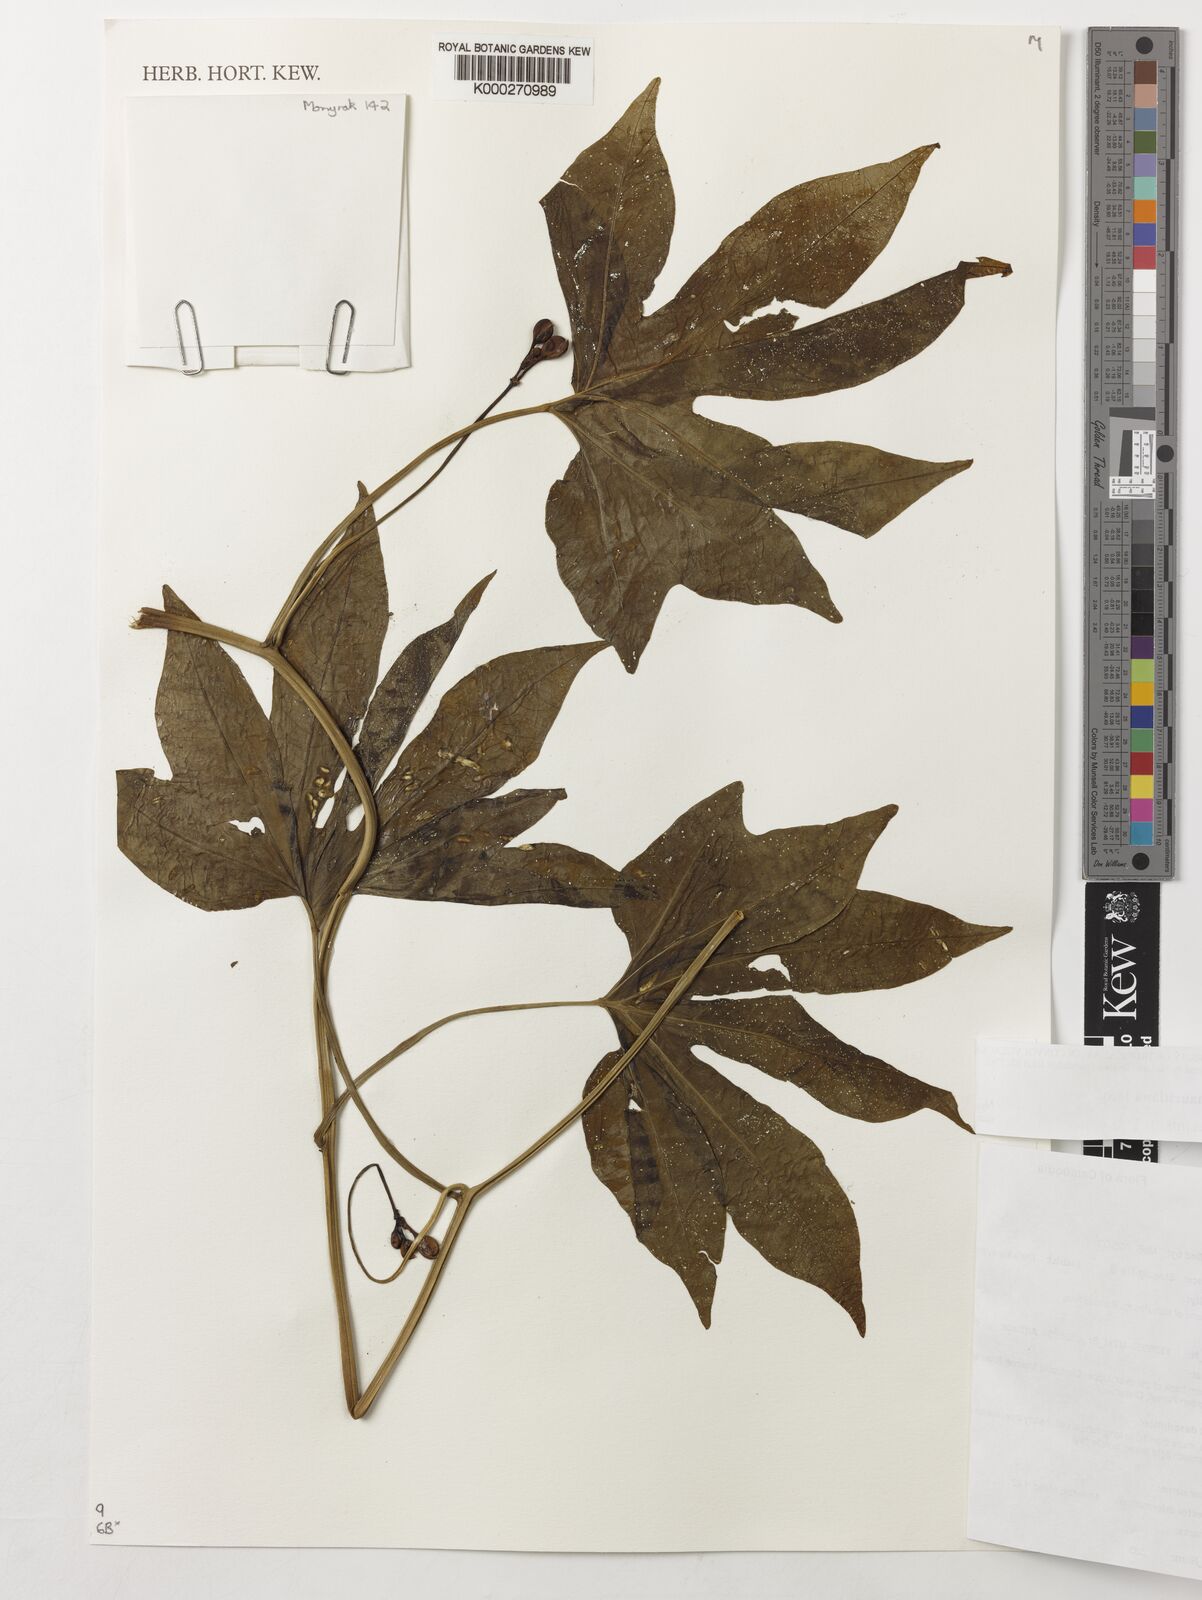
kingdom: Plantae
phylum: Tracheophyta
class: Magnoliopsida
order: Solanales
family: Convolvulaceae
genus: Ipomoea
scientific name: Ipomoea mauritiana
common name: Mauritanian convolvulus
